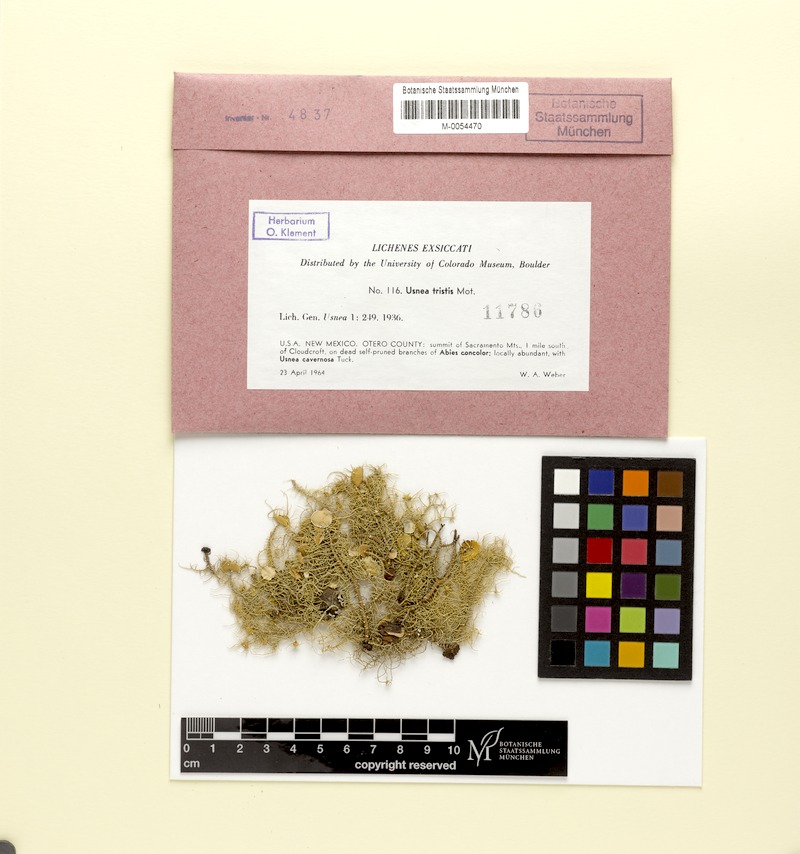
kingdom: Fungi
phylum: Ascomycota
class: Lecanoromycetes
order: Lecanorales
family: Parmeliaceae
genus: Usnea
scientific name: Usnea tristis
